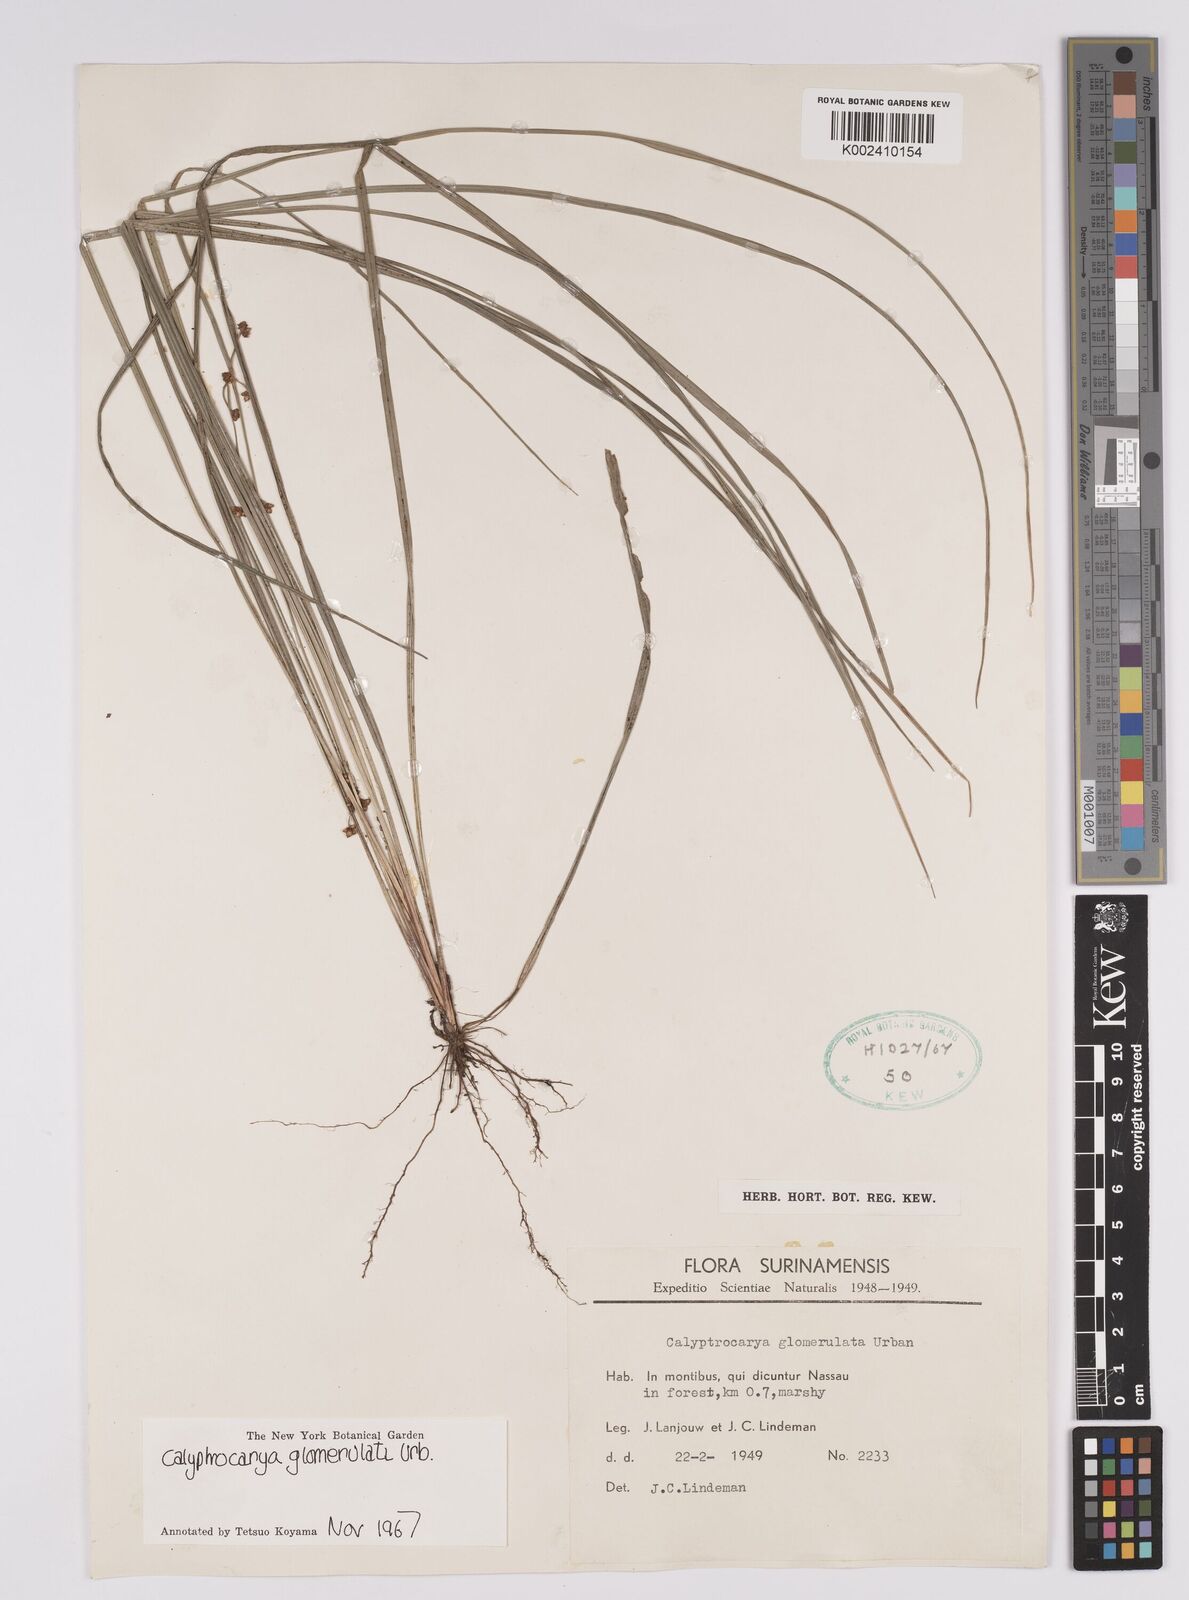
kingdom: Plantae
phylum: Tracheophyta
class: Liliopsida
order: Poales
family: Cyperaceae
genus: Calyptrocarya
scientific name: Calyptrocarya glomerulata
